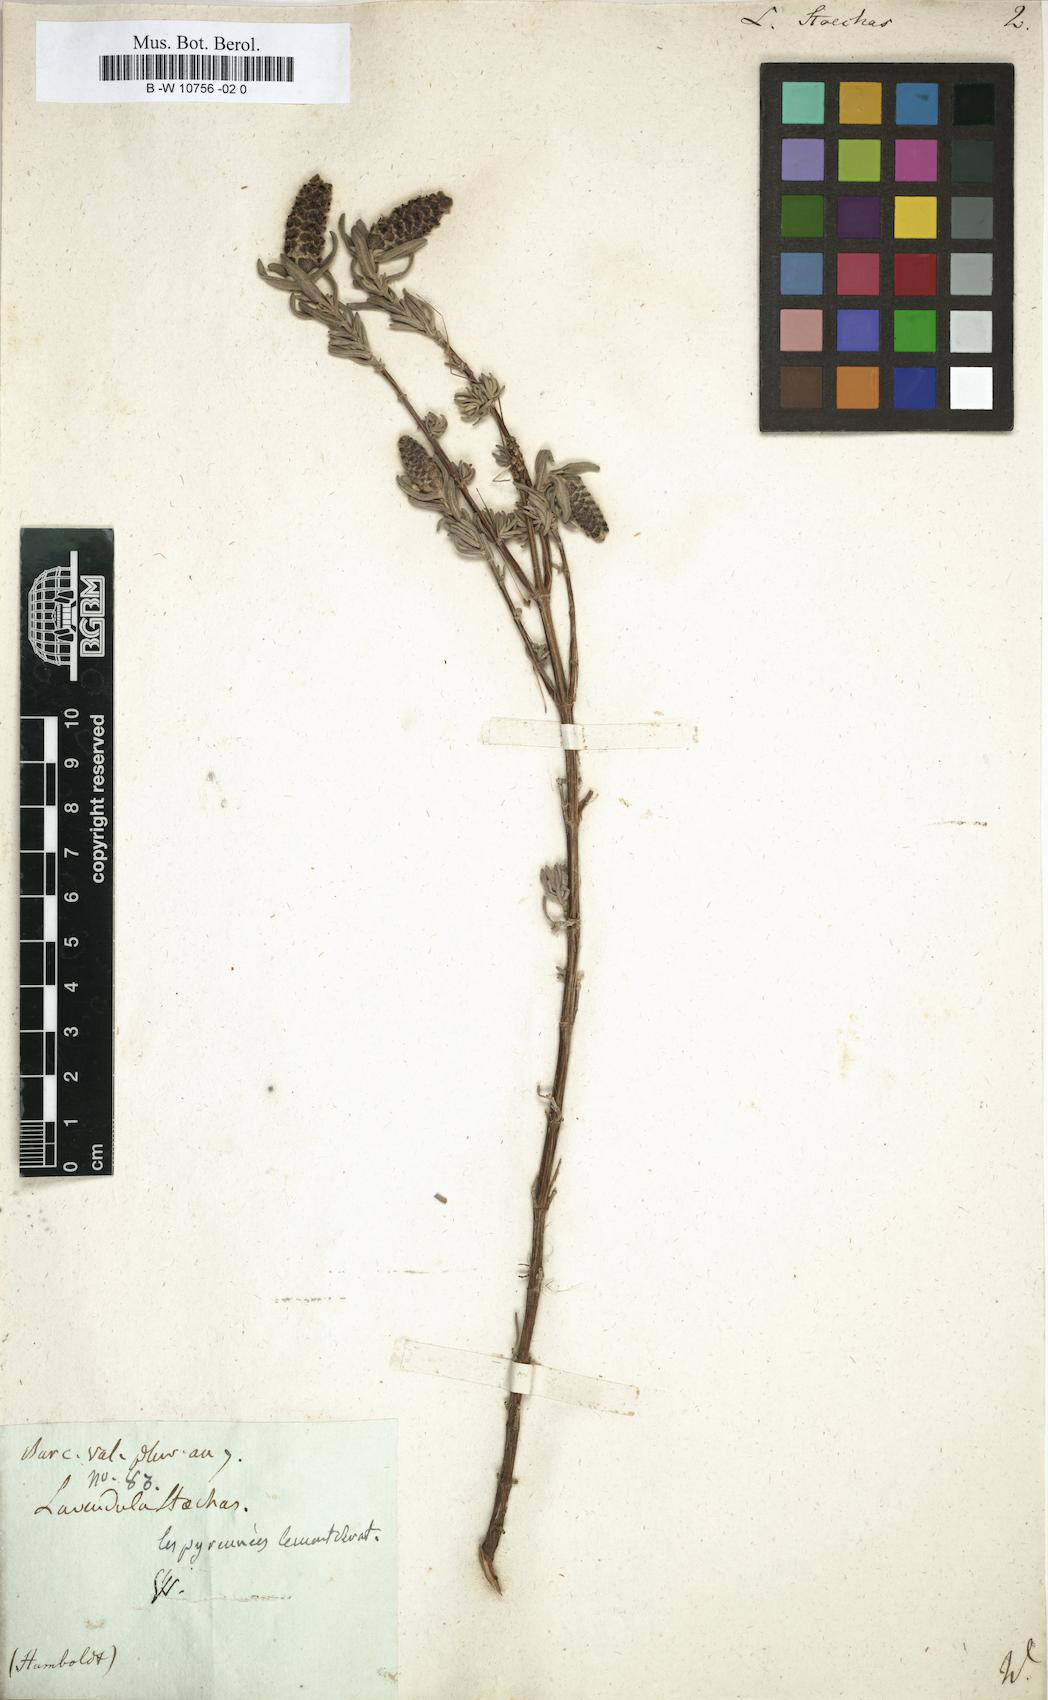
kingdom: Plantae
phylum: Tracheophyta
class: Magnoliopsida
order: Lamiales
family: Lamiaceae
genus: Lavandula
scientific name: Lavandula stoechas
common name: French lavender
